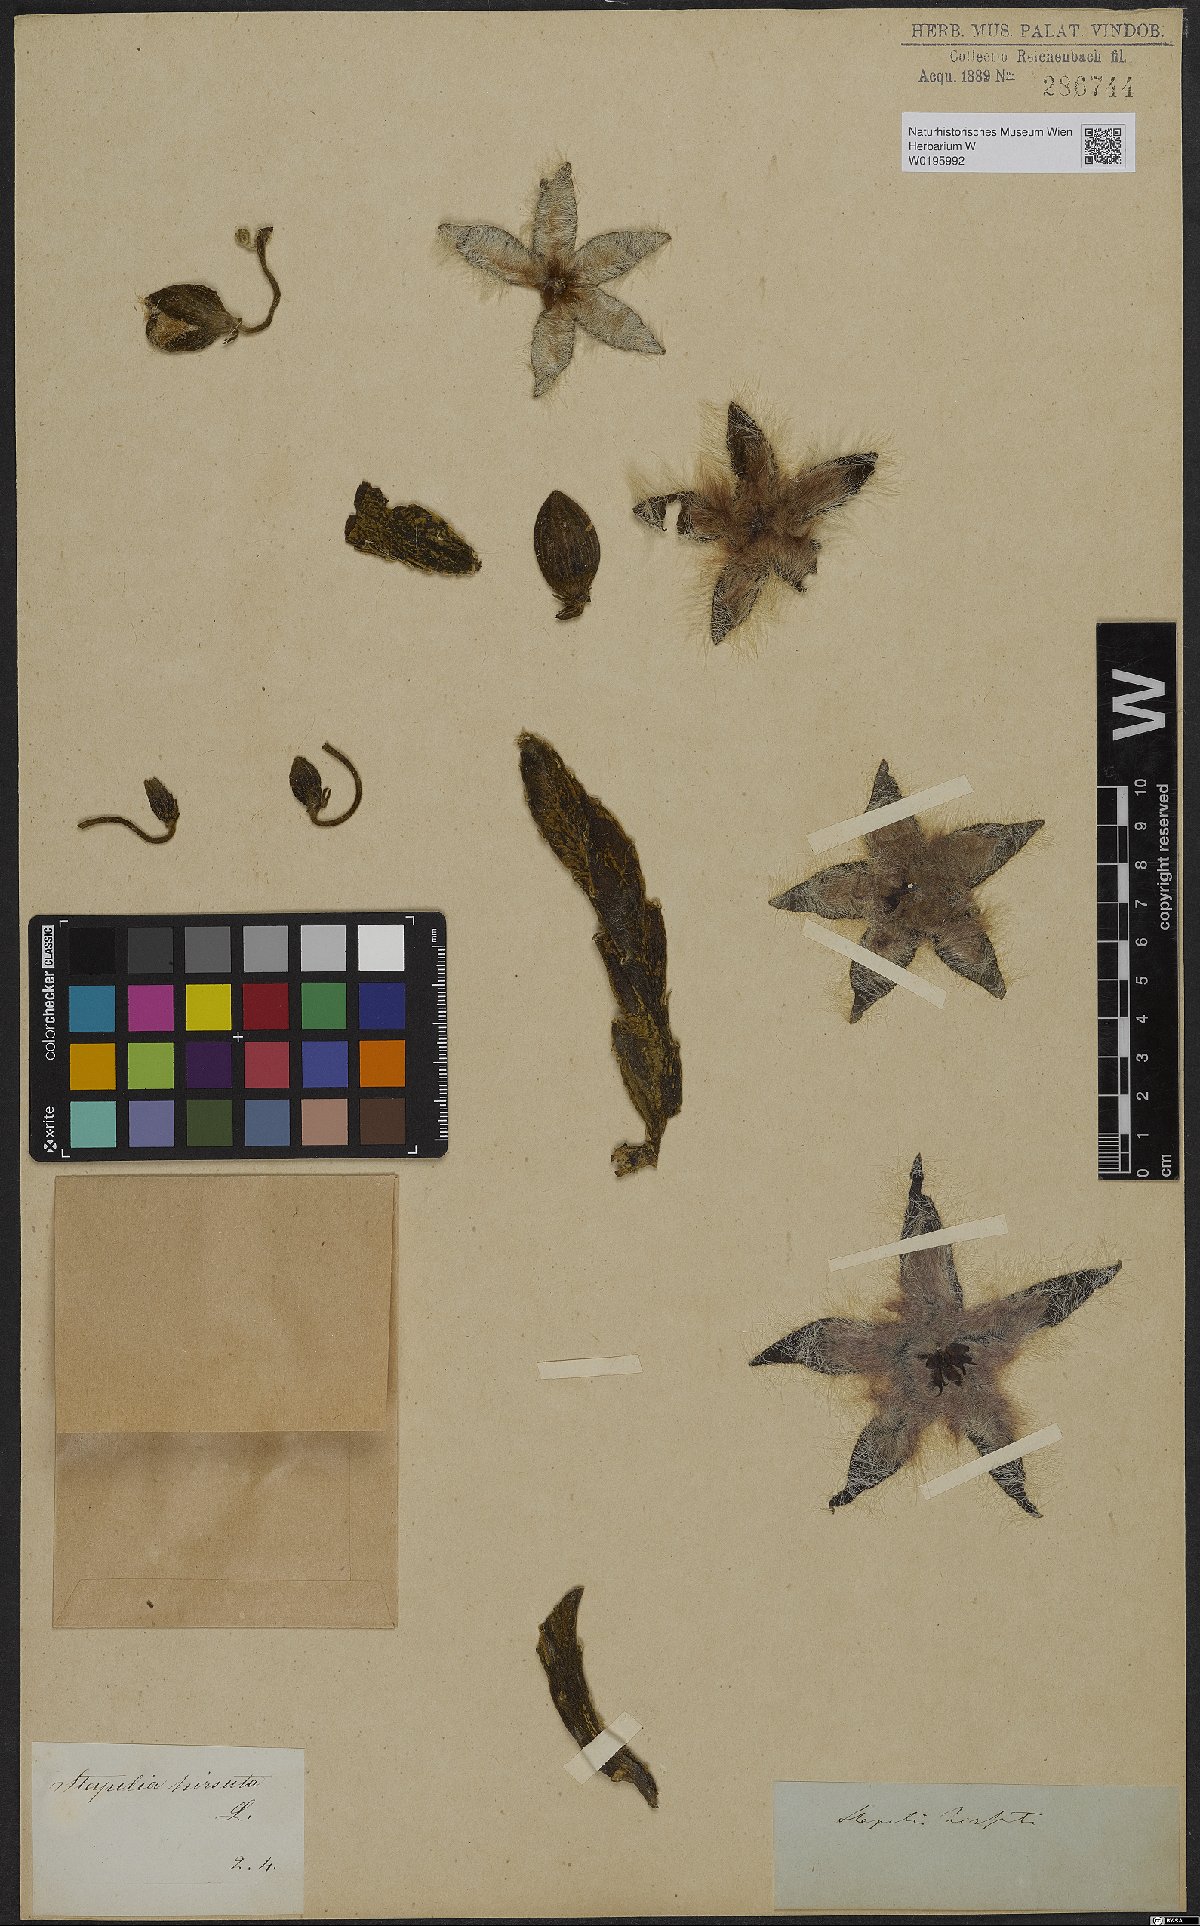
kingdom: Plantae
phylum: Tracheophyta
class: Magnoliopsida
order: Gentianales
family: Apocynaceae
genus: Ceropegia
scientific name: Ceropegia pulvinata
